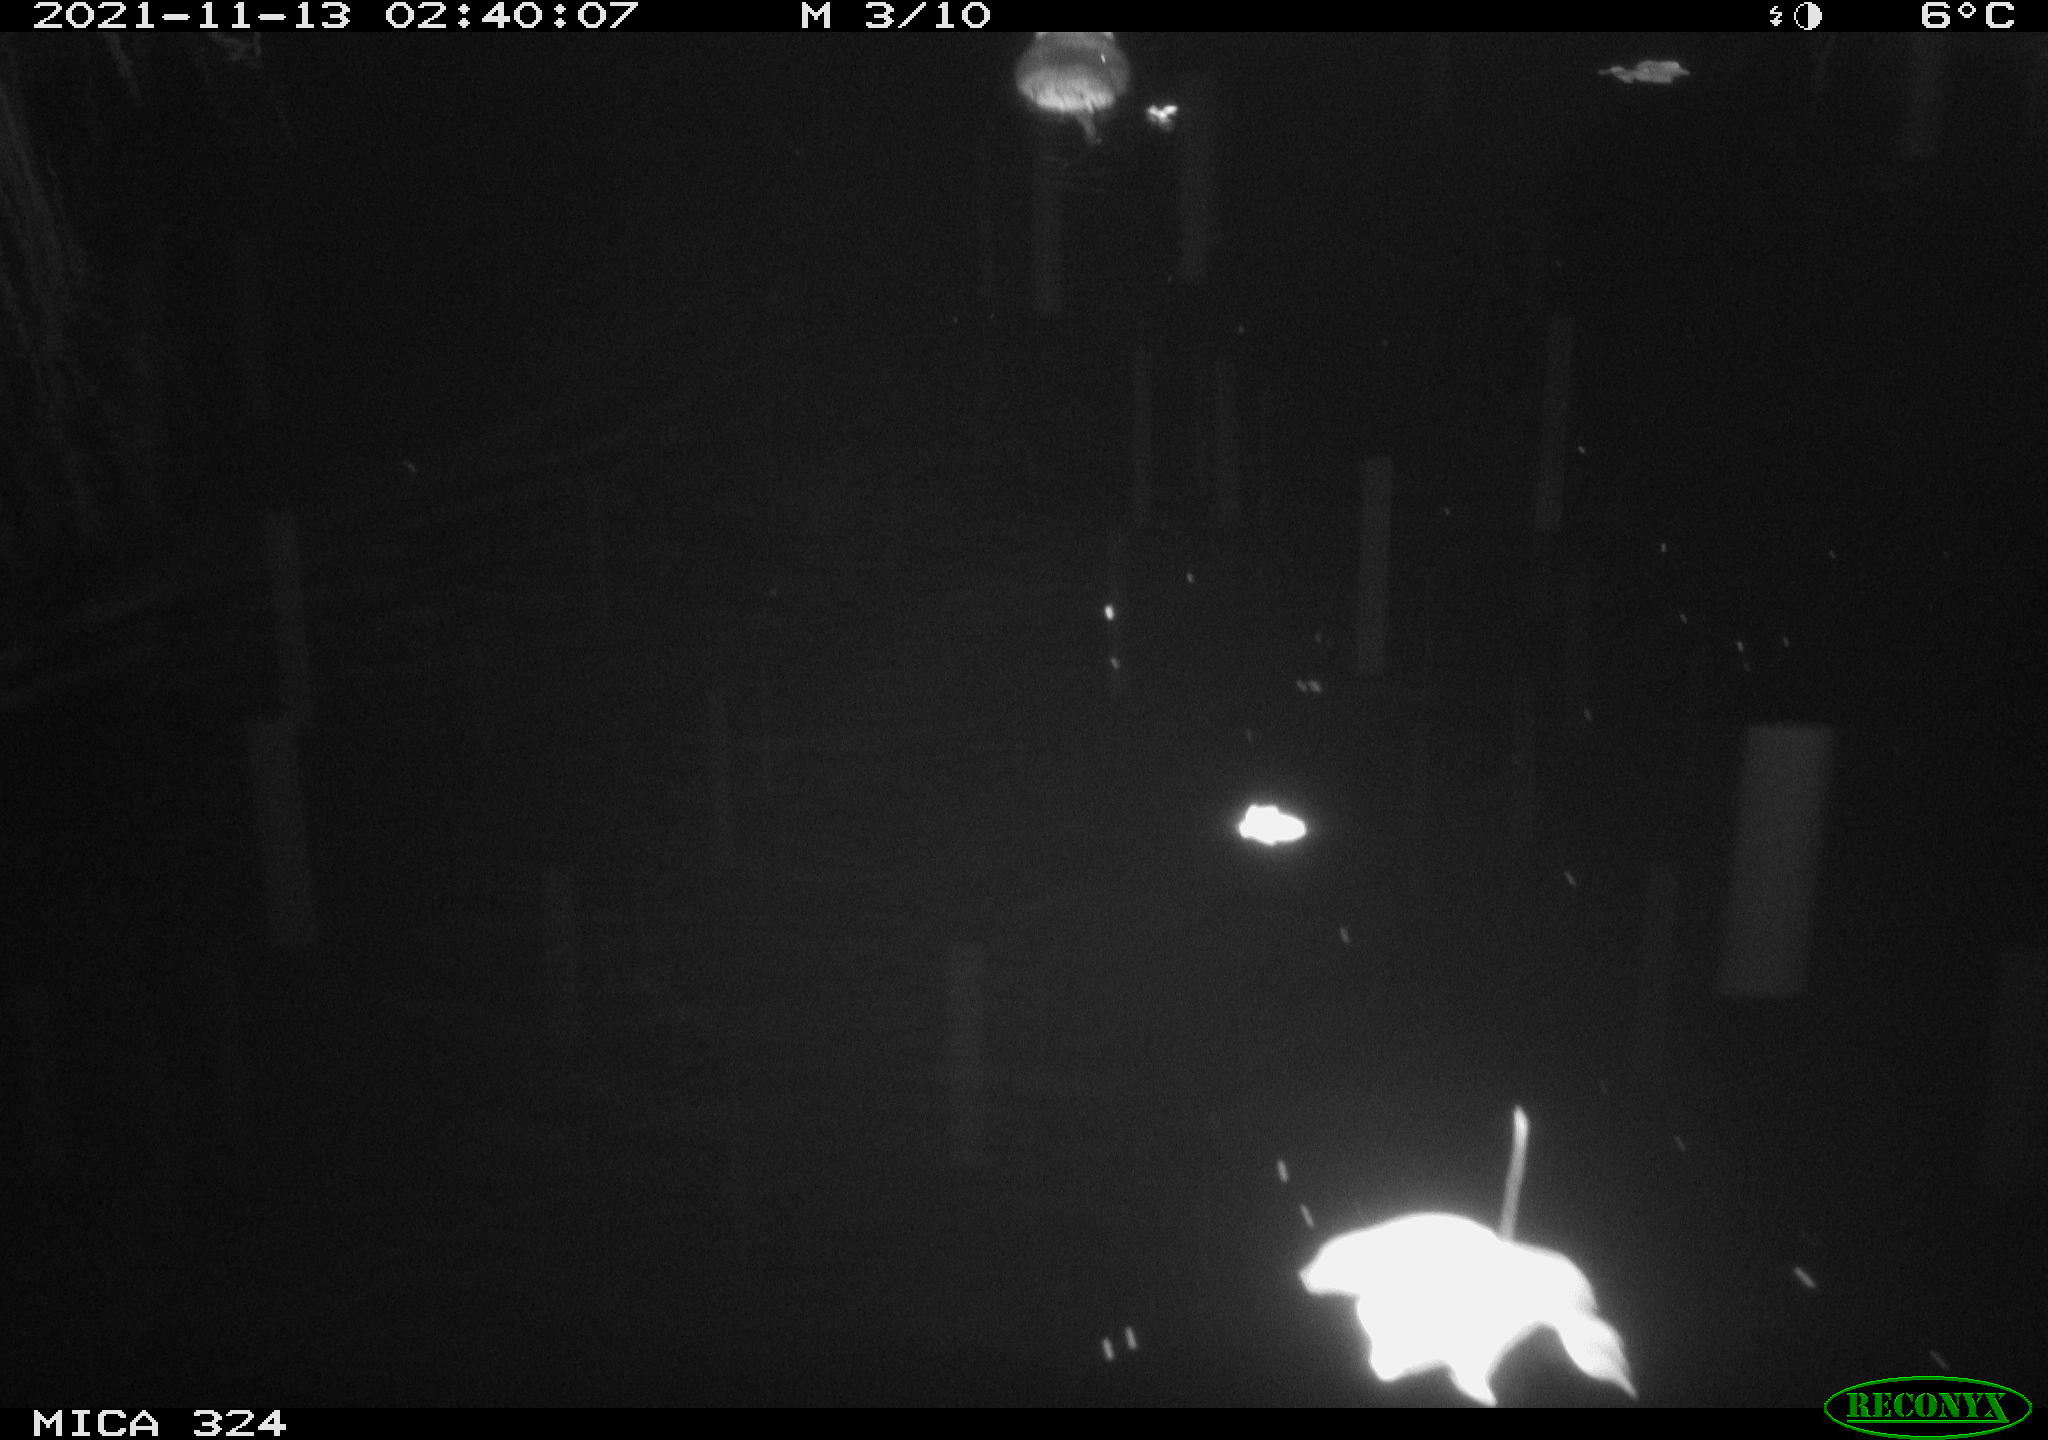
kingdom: Animalia
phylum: Chordata
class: Mammalia
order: Rodentia
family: Cricetidae
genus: Ondatra
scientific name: Ondatra zibethicus
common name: Muskrat
